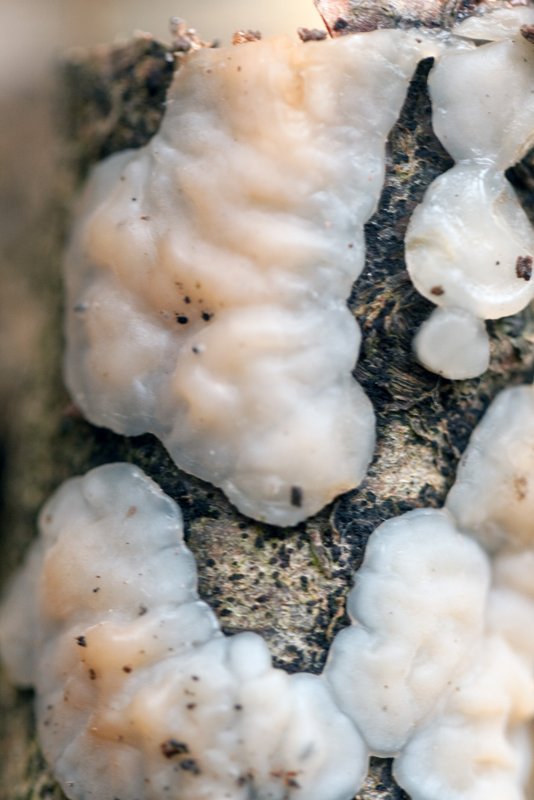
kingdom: Fungi
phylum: Basidiomycota
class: Agaricomycetes
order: Auriculariales
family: Auriculariaceae
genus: Exidia
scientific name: Exidia thuretiana
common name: hvidlig bævretop
